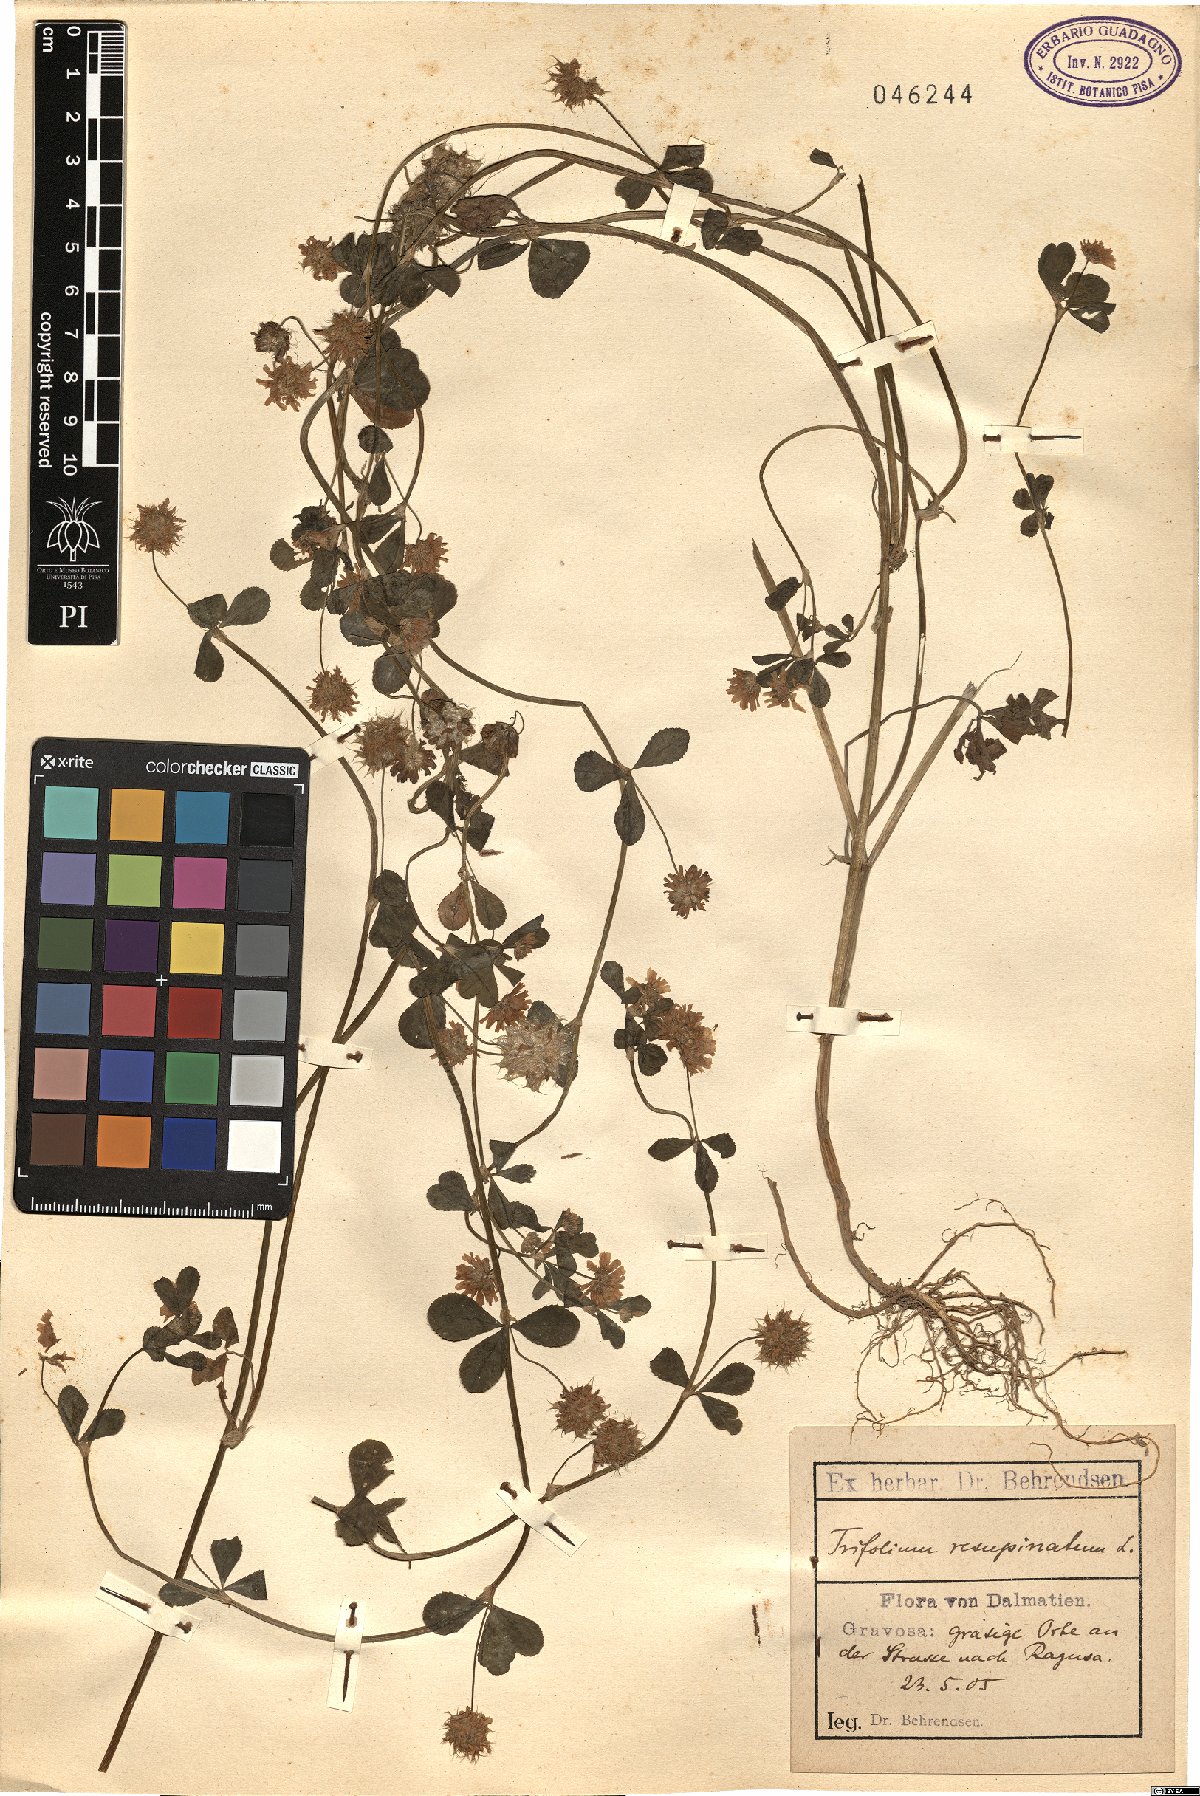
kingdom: Plantae
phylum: Tracheophyta
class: Magnoliopsida
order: Fabales
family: Fabaceae
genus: Trifolium
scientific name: Trifolium resupinatum
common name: Reversed clover
